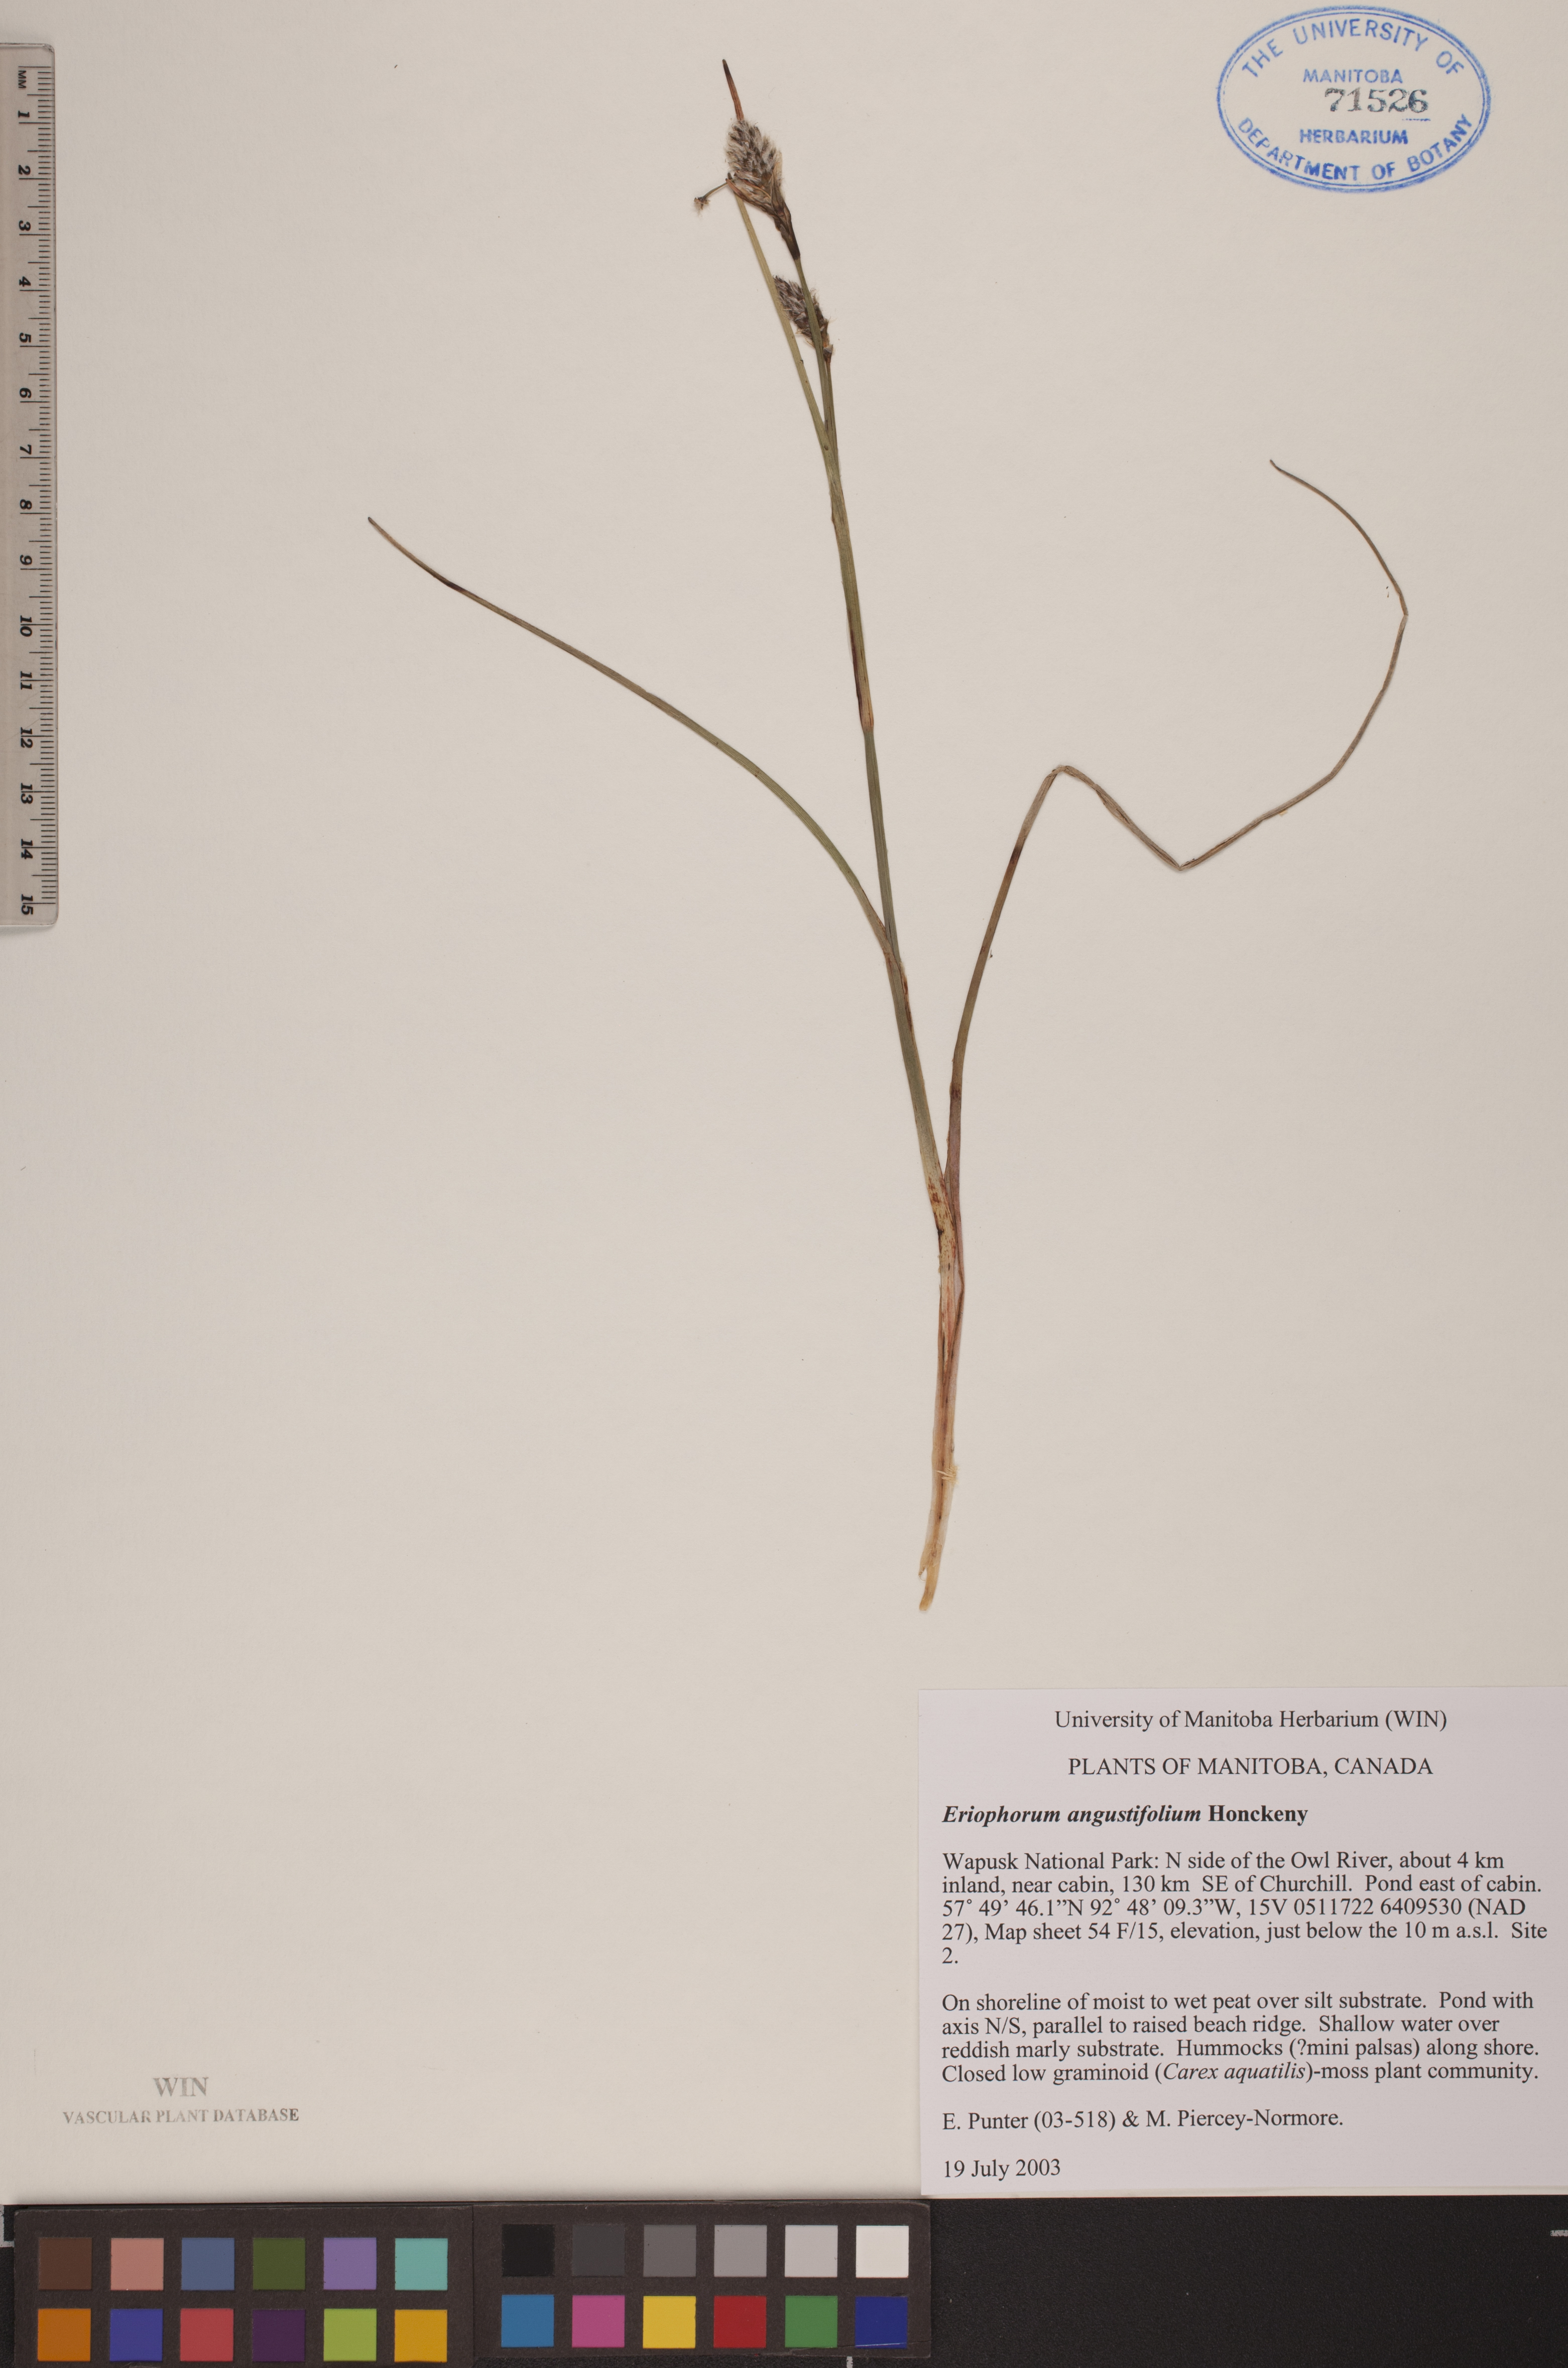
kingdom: Plantae
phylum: Tracheophyta
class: Liliopsida
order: Poales
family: Cyperaceae
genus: Eriophorum
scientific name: Eriophorum angustifolium
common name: Common cottongrass
